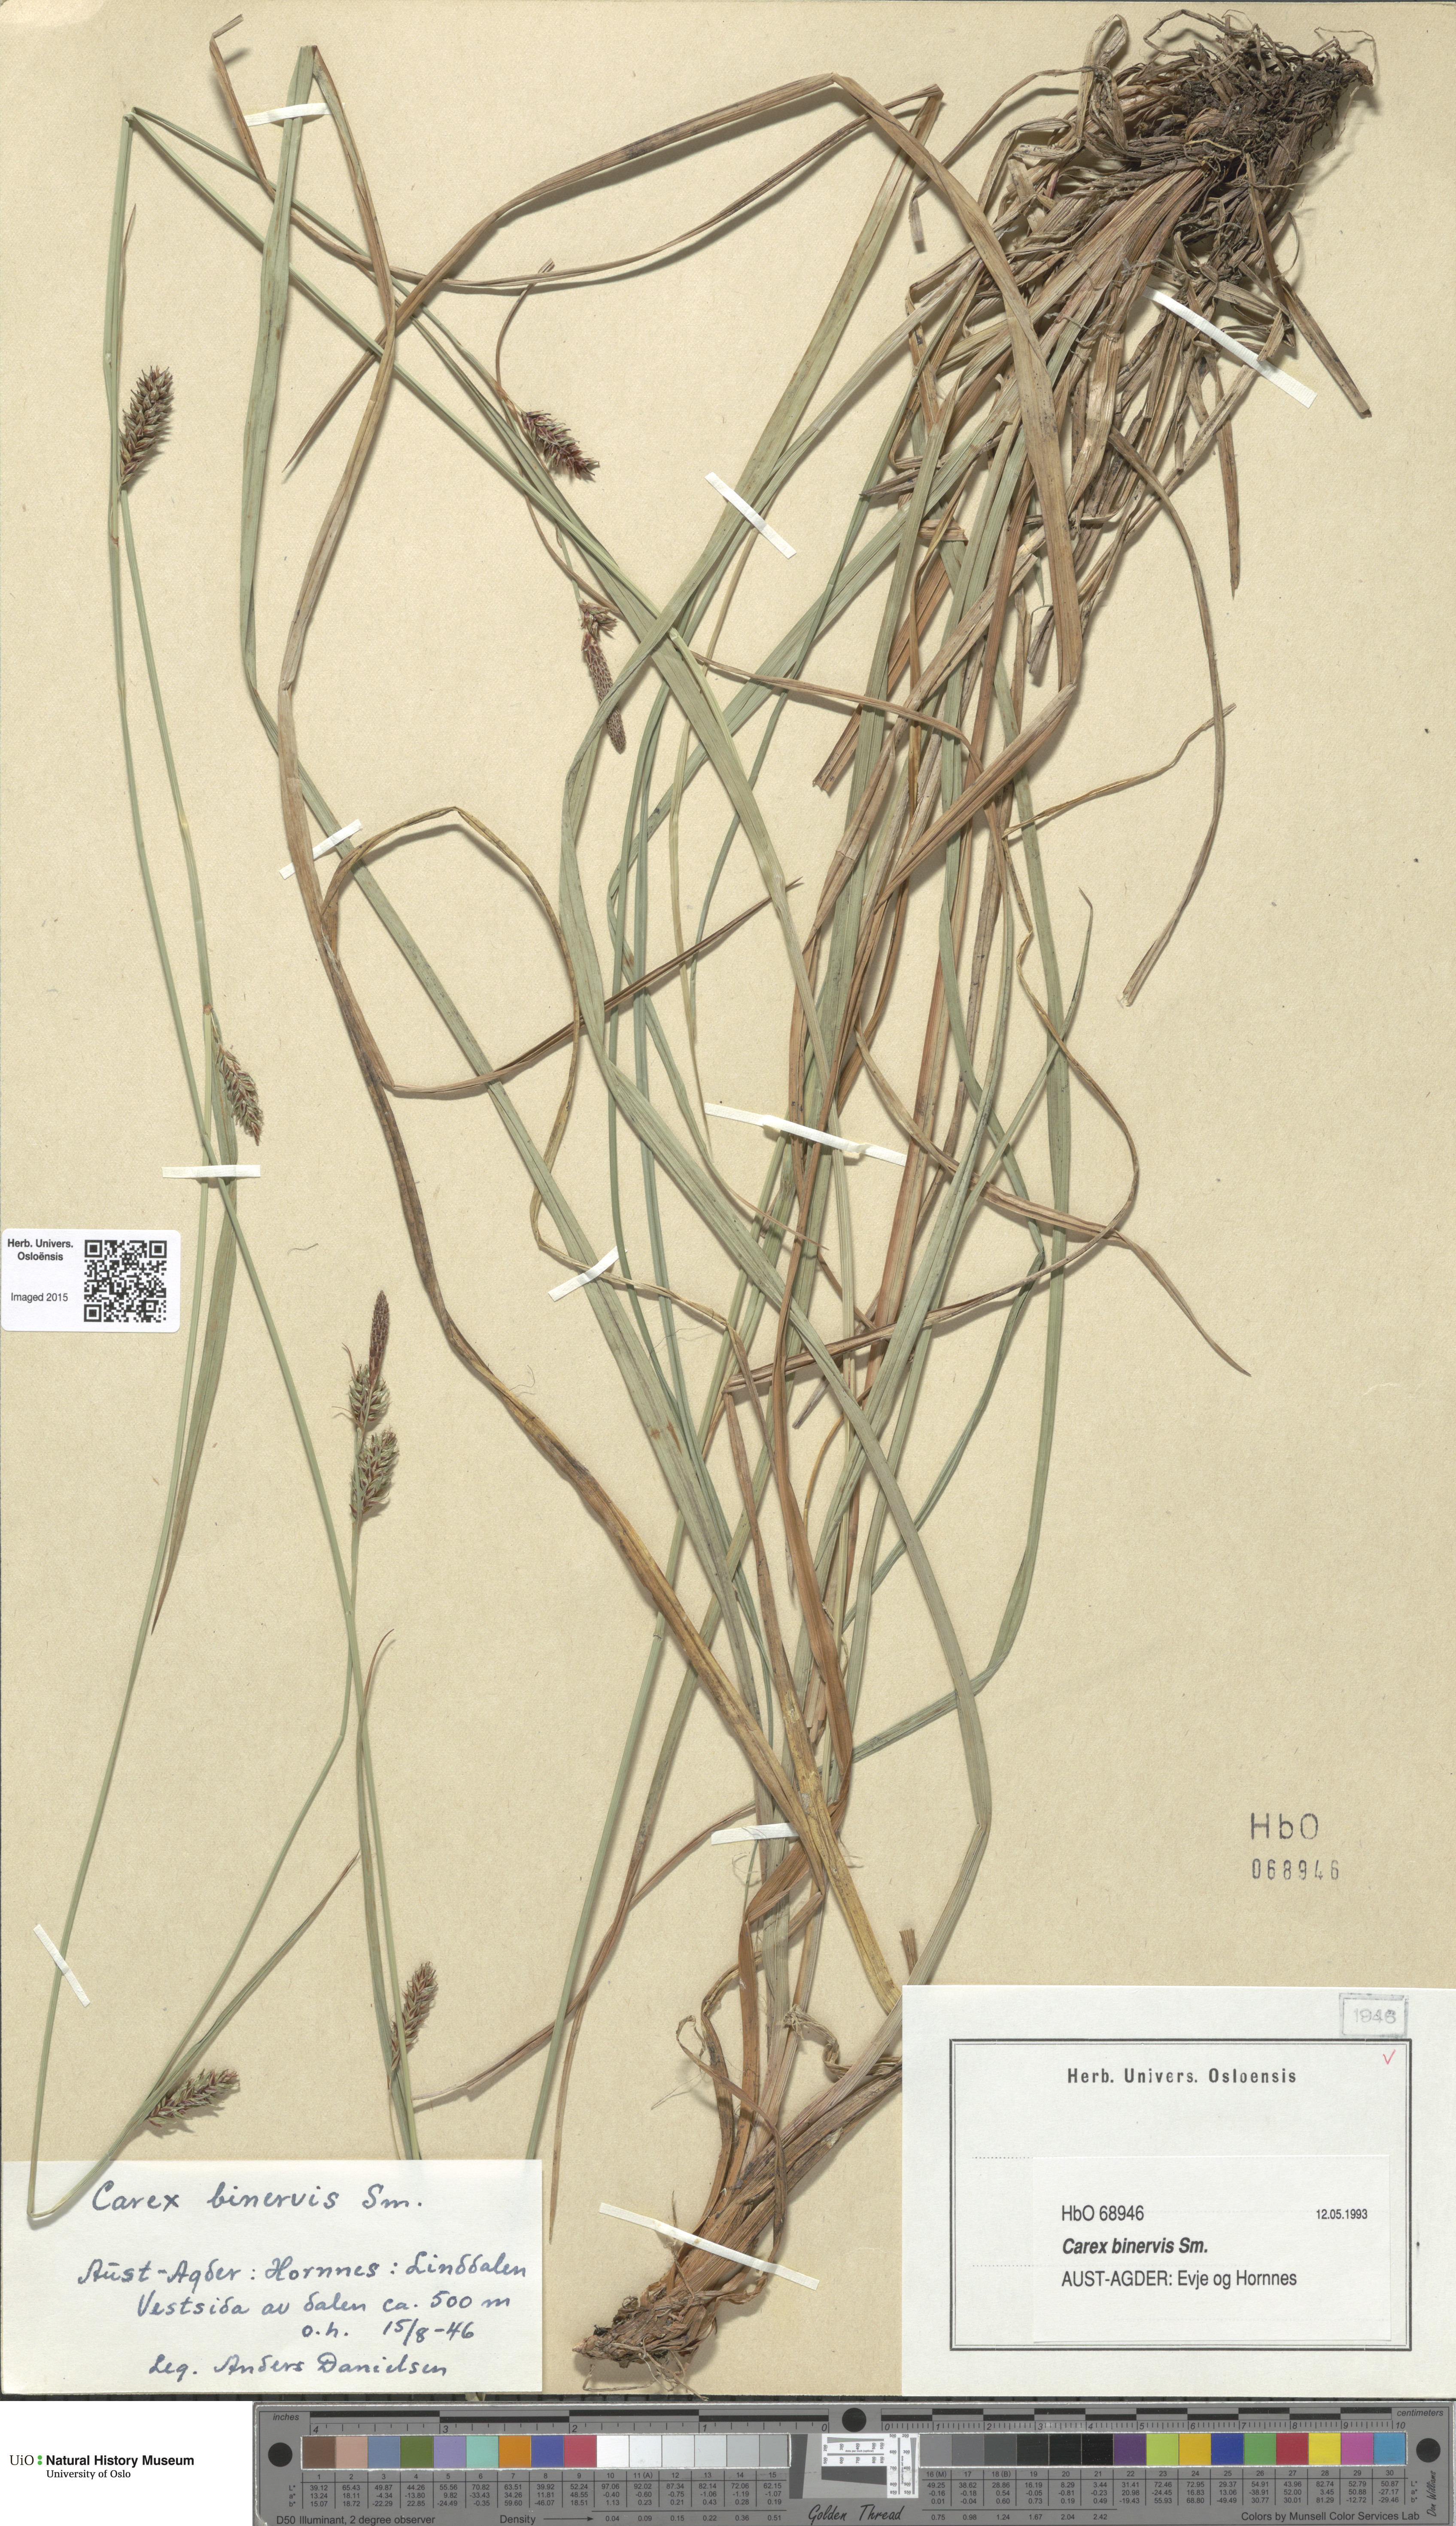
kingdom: Plantae
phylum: Tracheophyta
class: Liliopsida
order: Poales
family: Cyperaceae
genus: Carex
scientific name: Carex binervis
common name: Green-ribbed sedge
